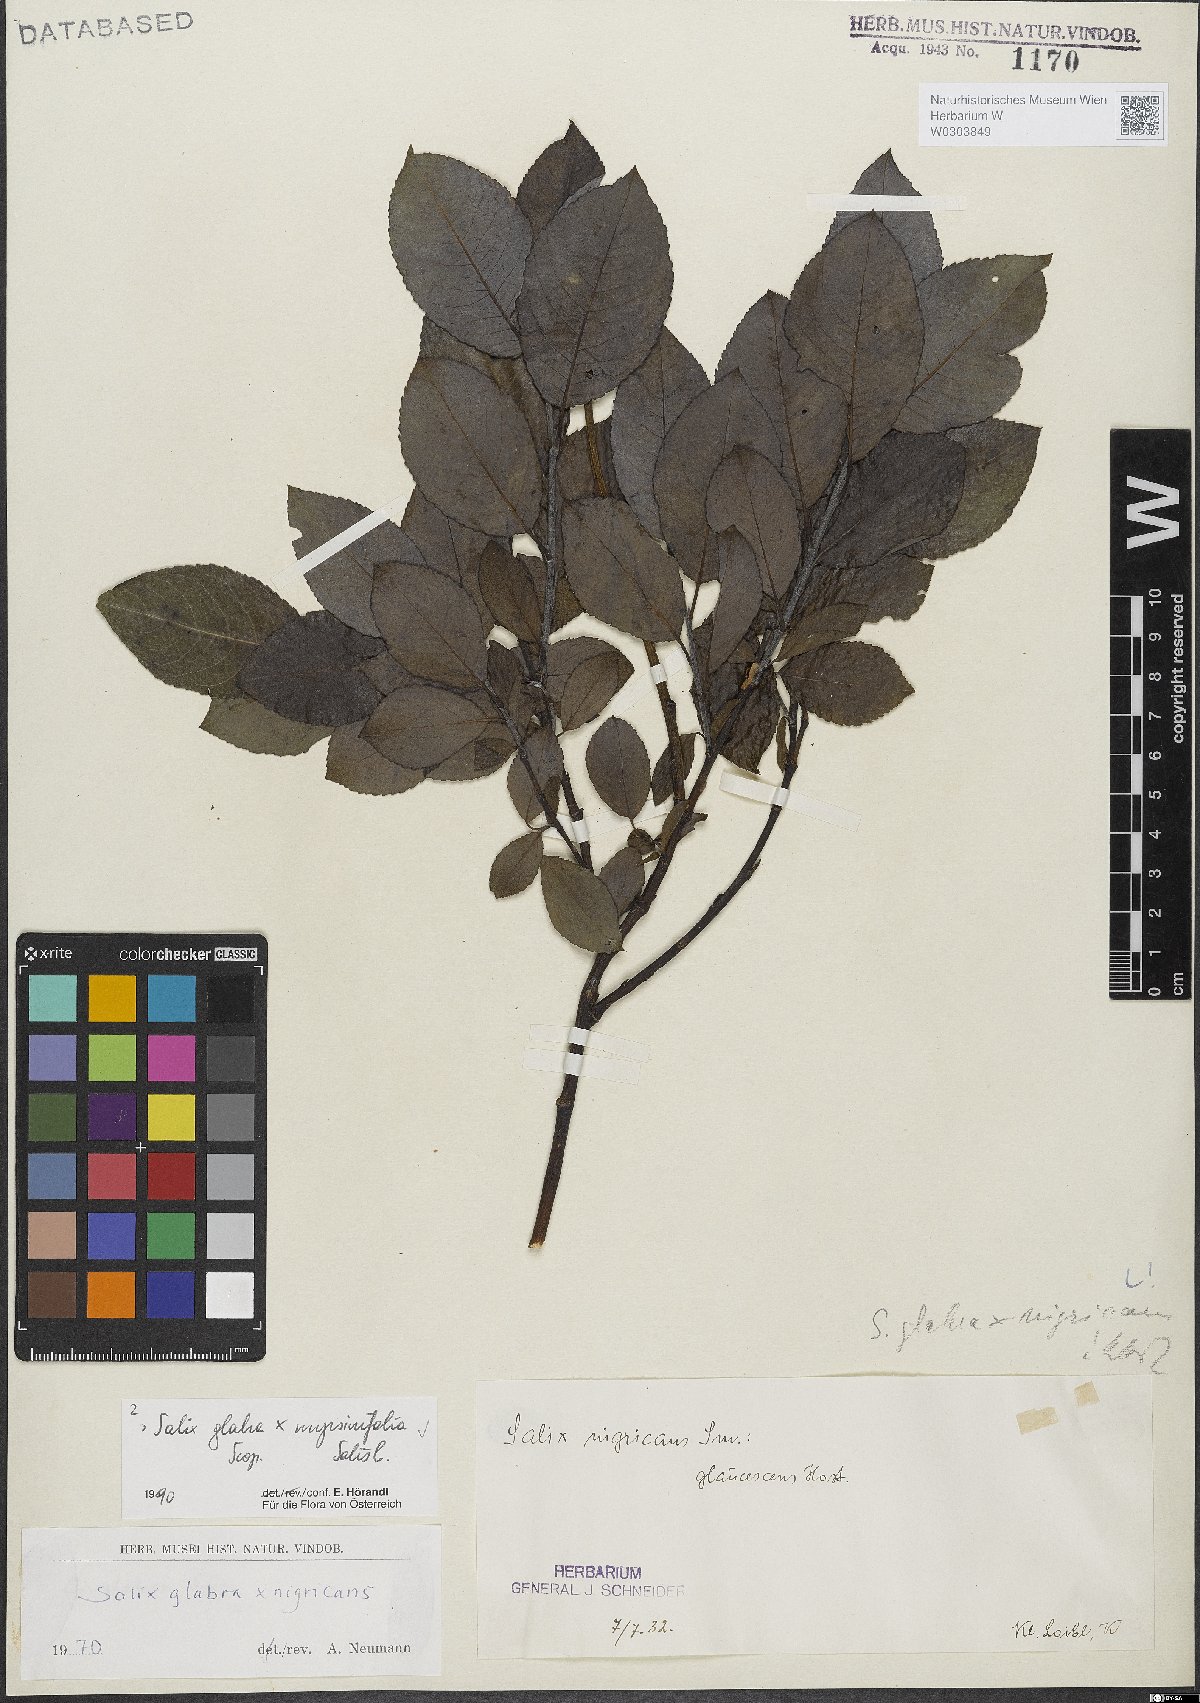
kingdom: Plantae
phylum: Tracheophyta
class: Magnoliopsida
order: Malpighiales
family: Salicaceae
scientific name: Salicaceae
